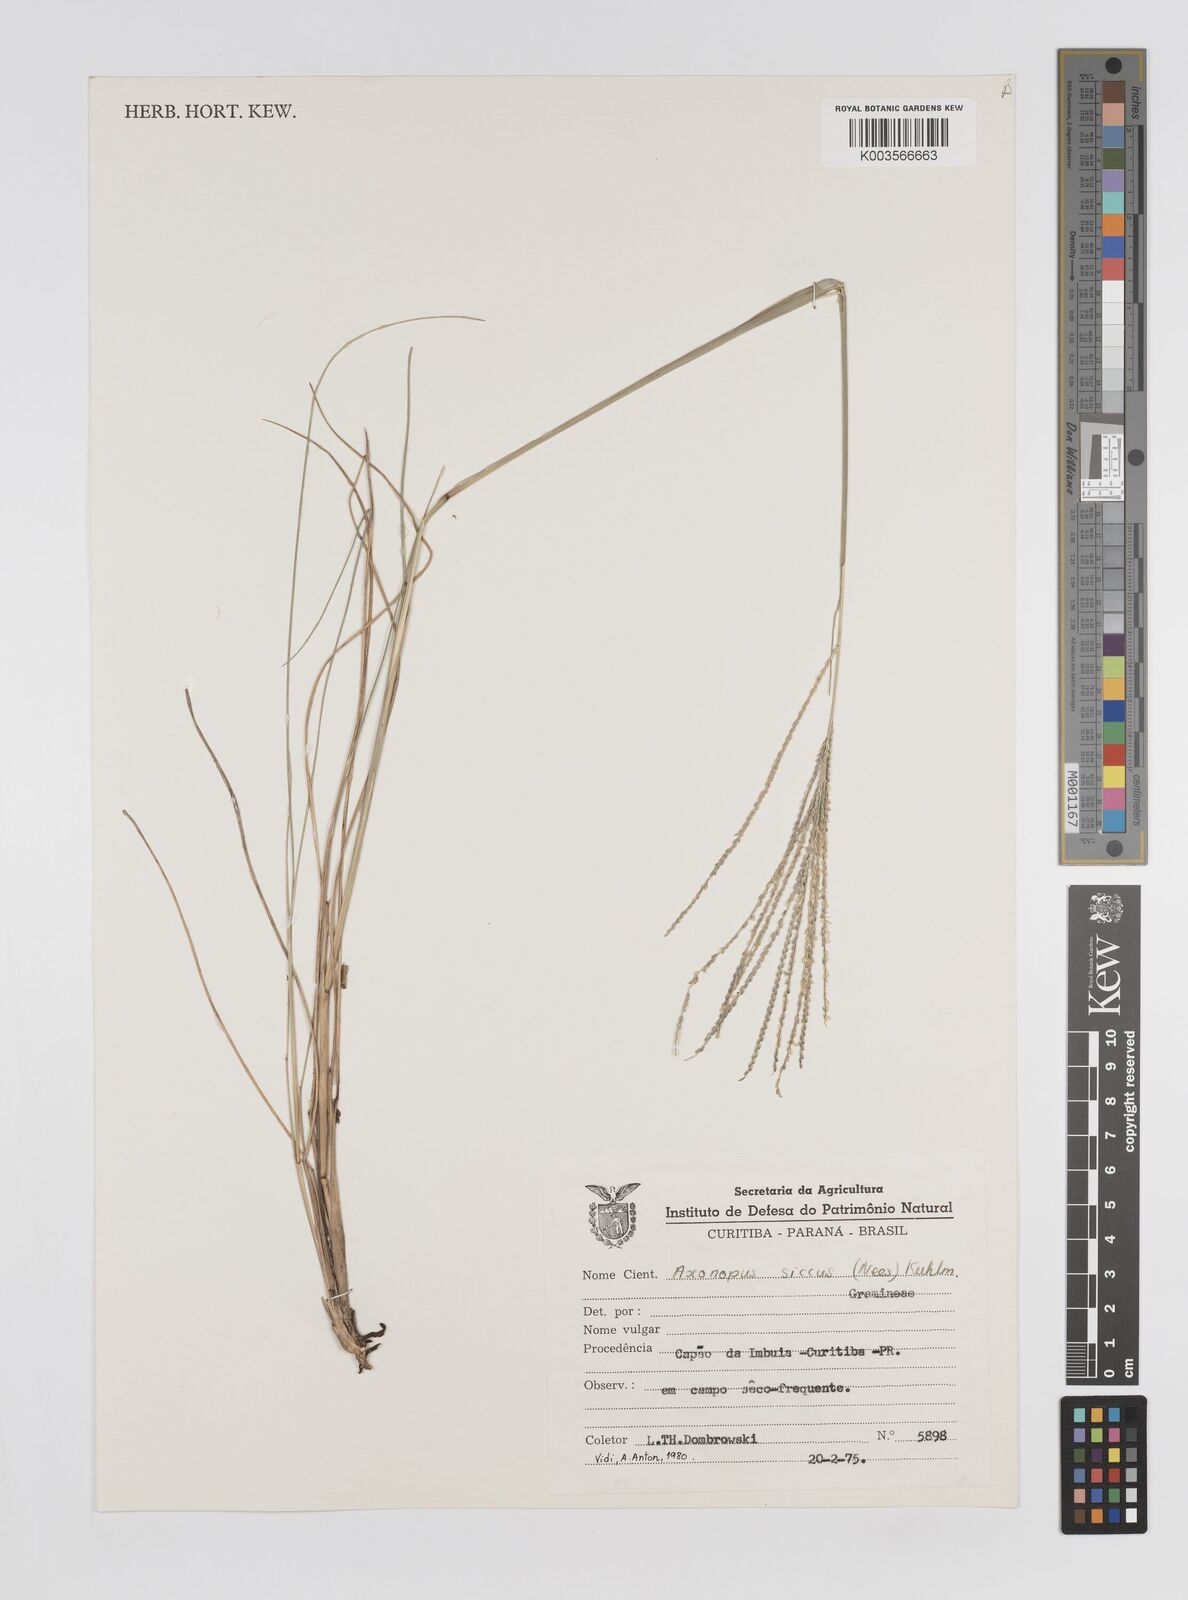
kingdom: Plantae
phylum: Tracheophyta
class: Liliopsida
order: Poales
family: Poaceae
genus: Axonopus
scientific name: Axonopus siccus
